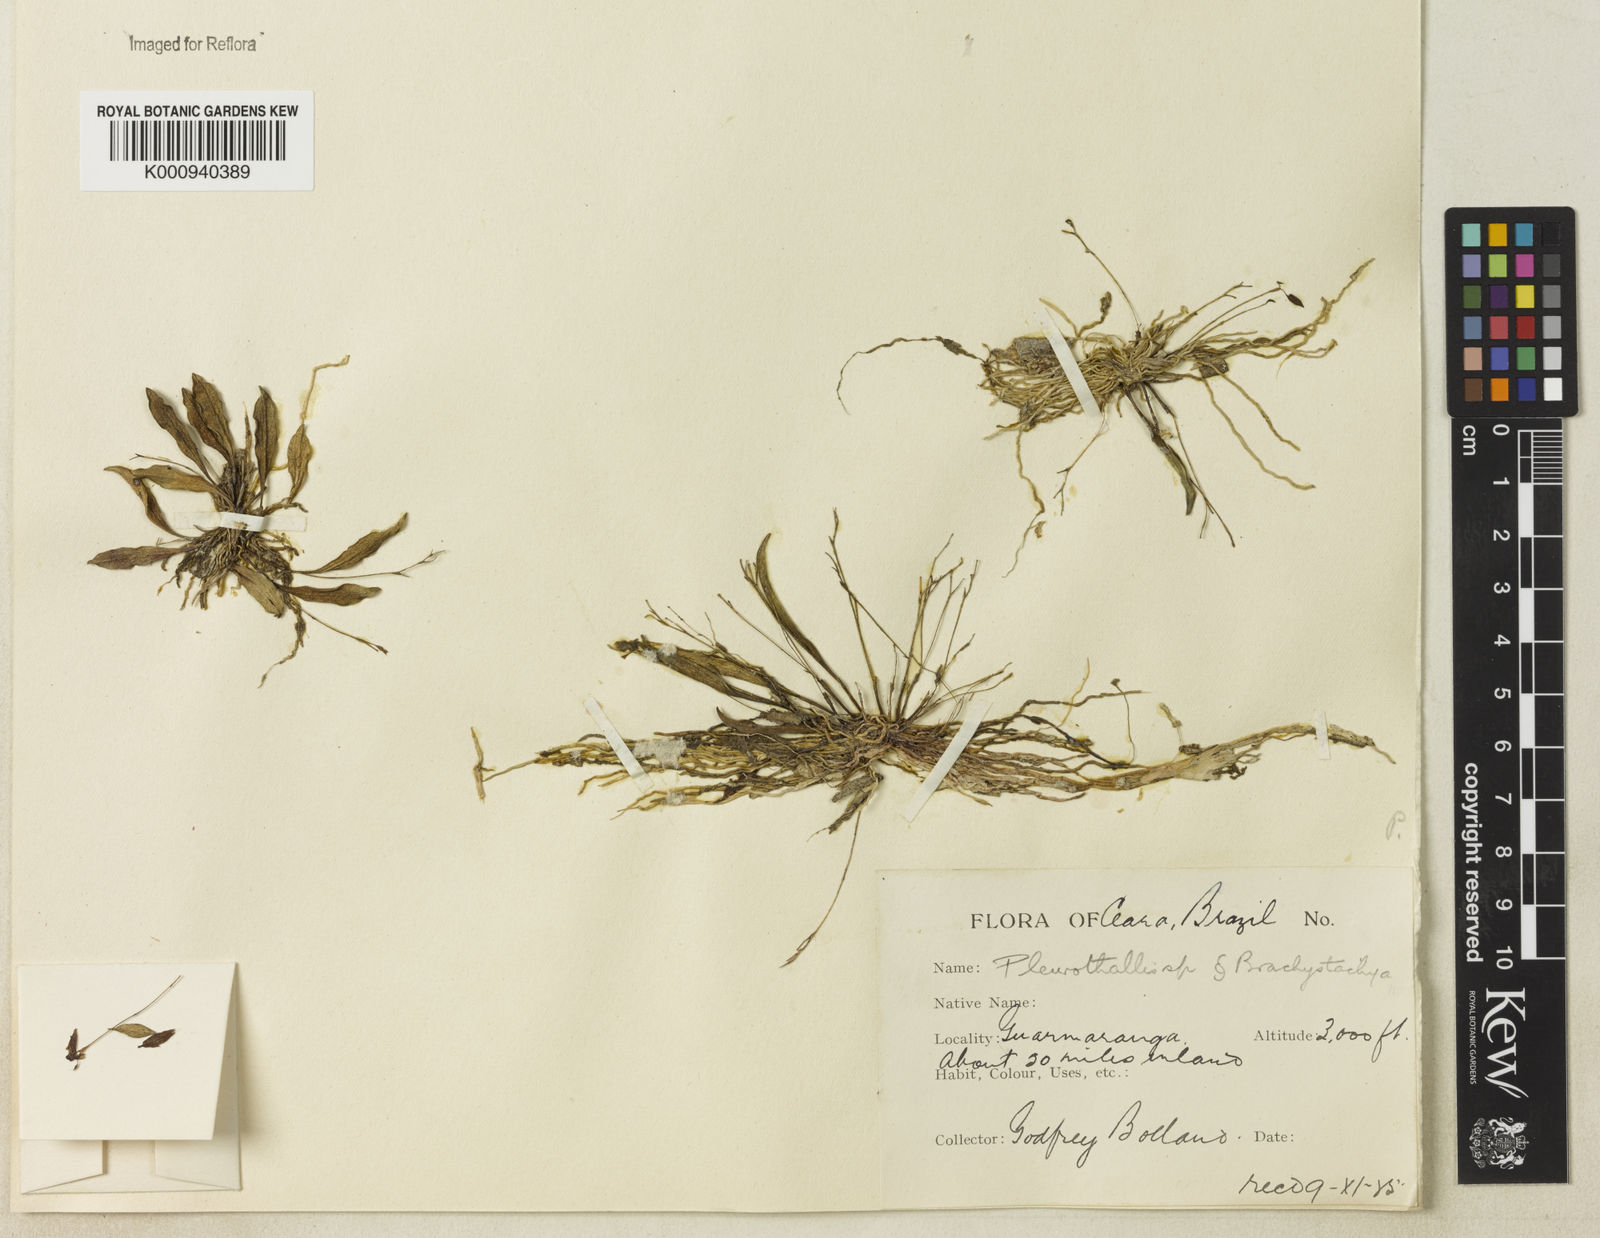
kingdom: Plantae
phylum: Tracheophyta
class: Liliopsida
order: Asparagales
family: Orchidaceae
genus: Pleurothallis
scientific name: Pleurothallis
